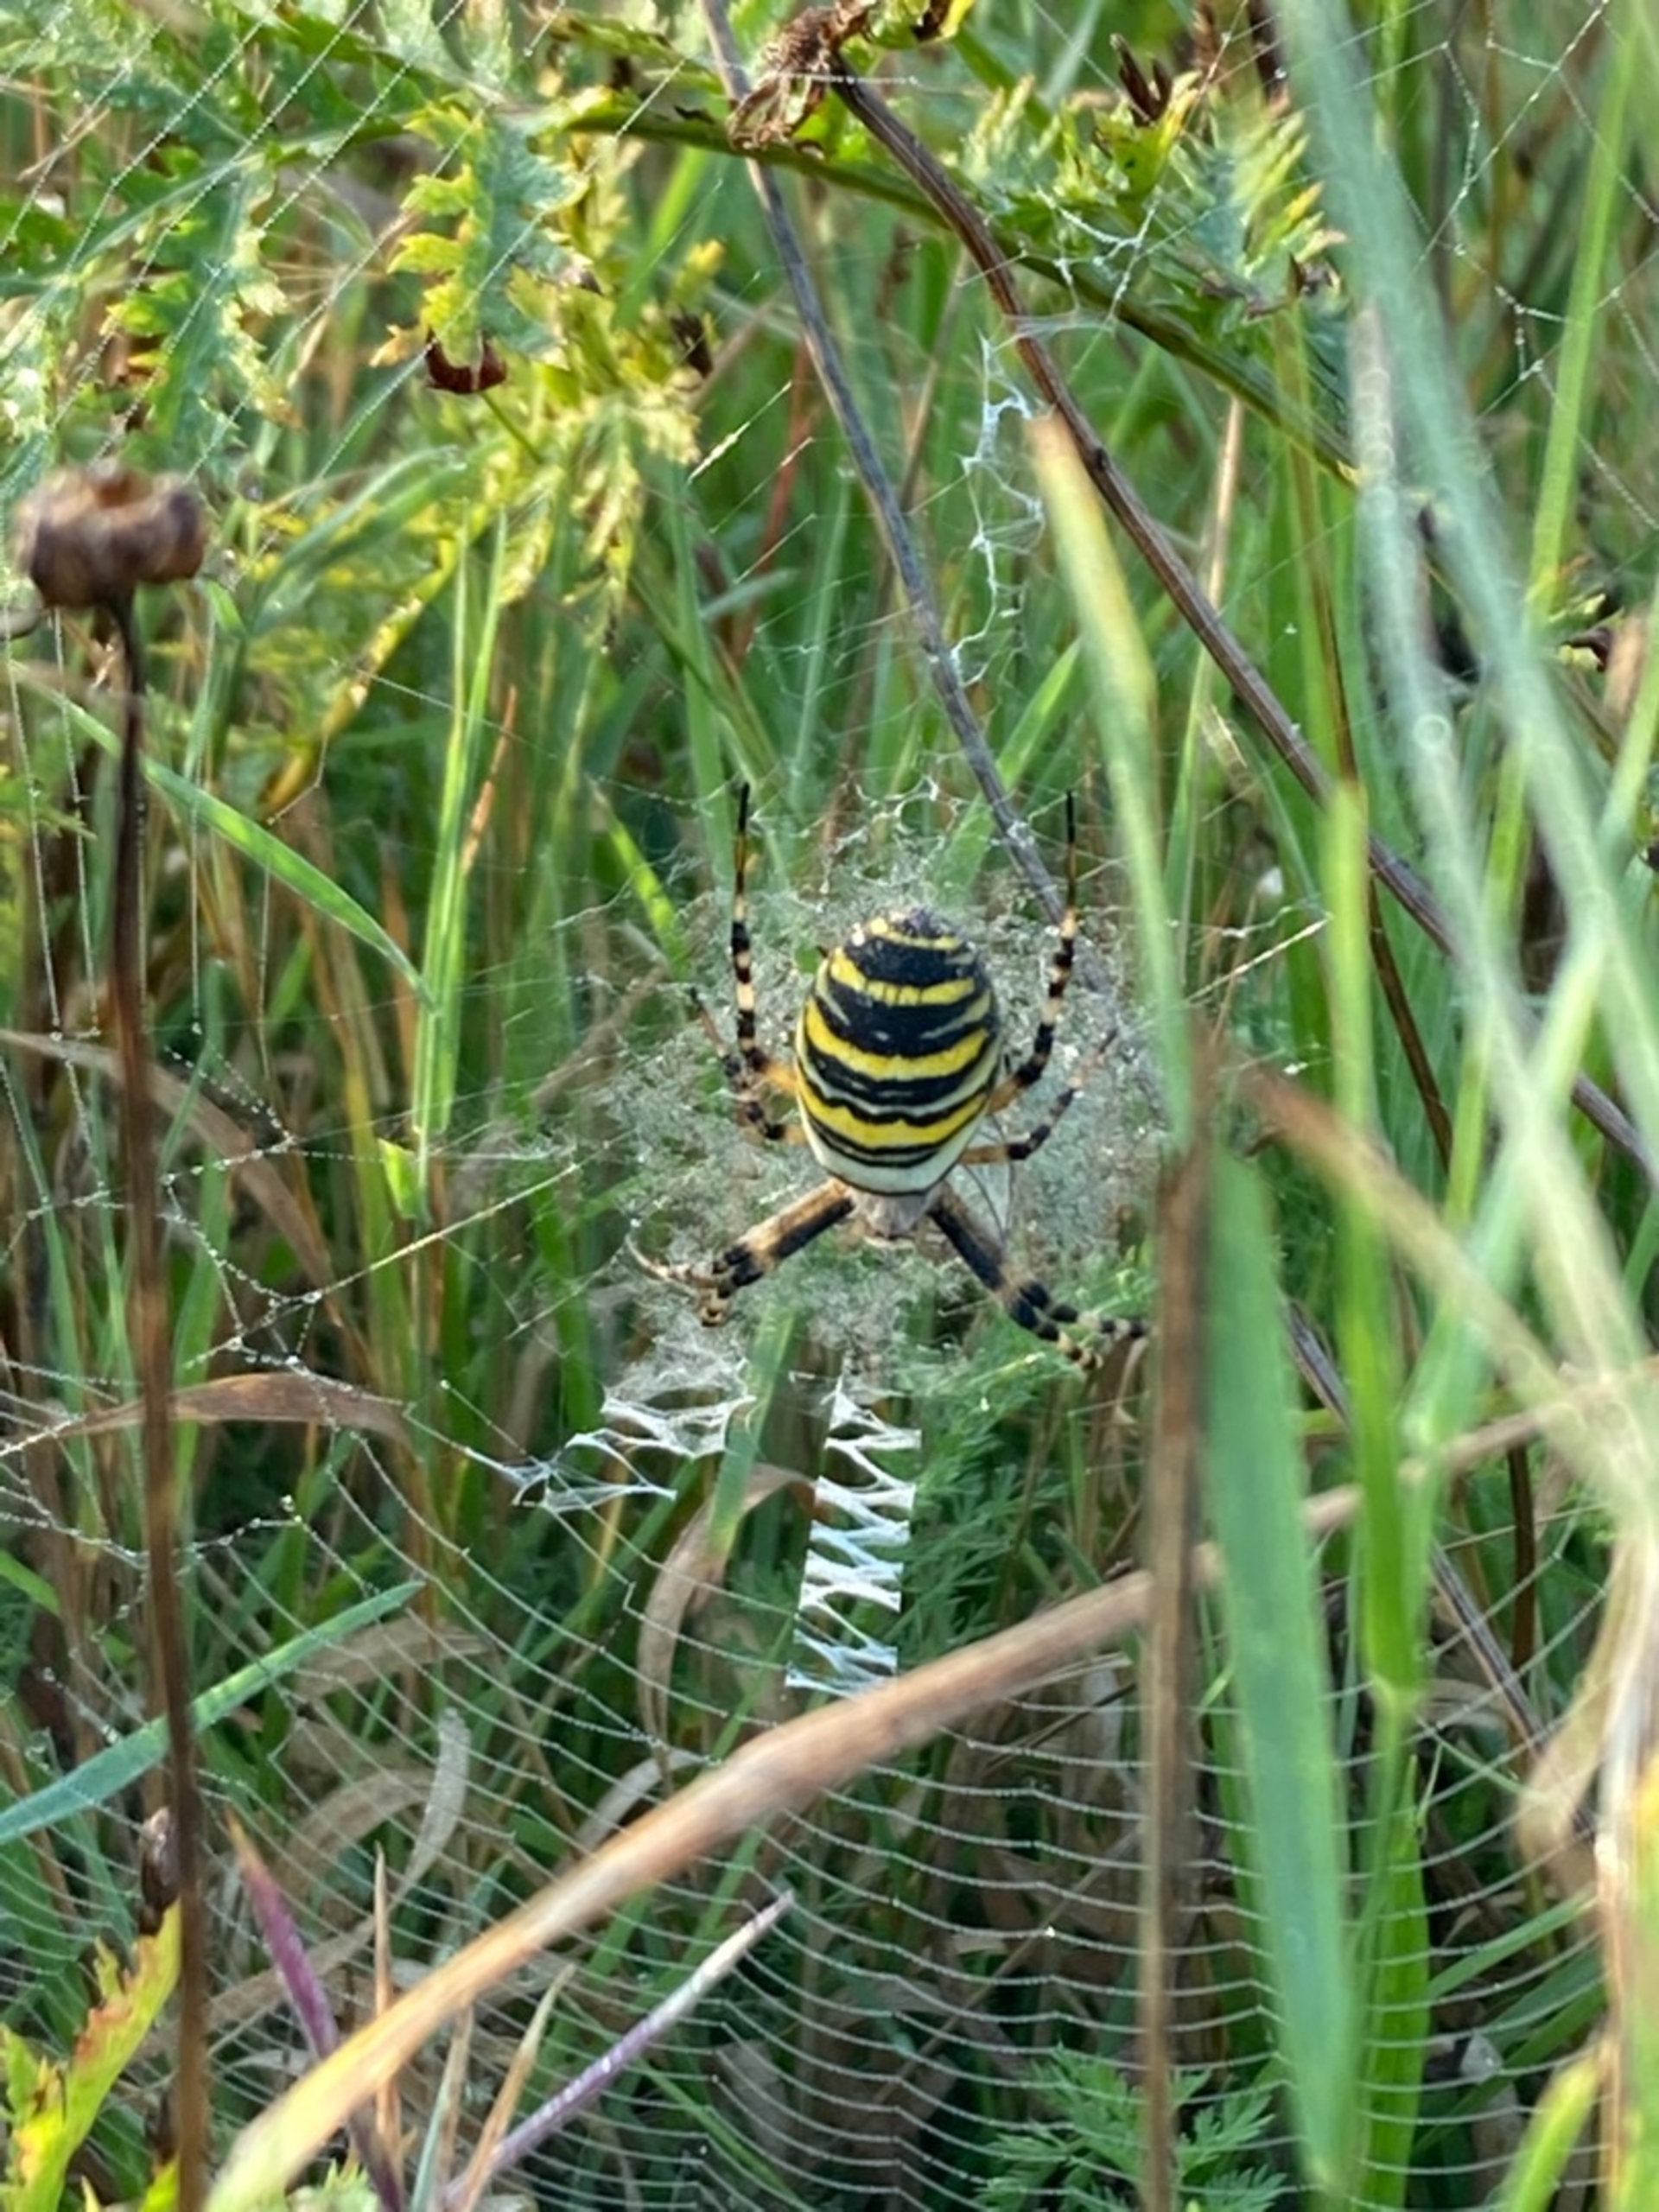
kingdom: Animalia
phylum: Arthropoda
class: Arachnida
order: Araneae
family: Araneidae
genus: Argiope
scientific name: Argiope bruennichi
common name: Hvepseedderkop
